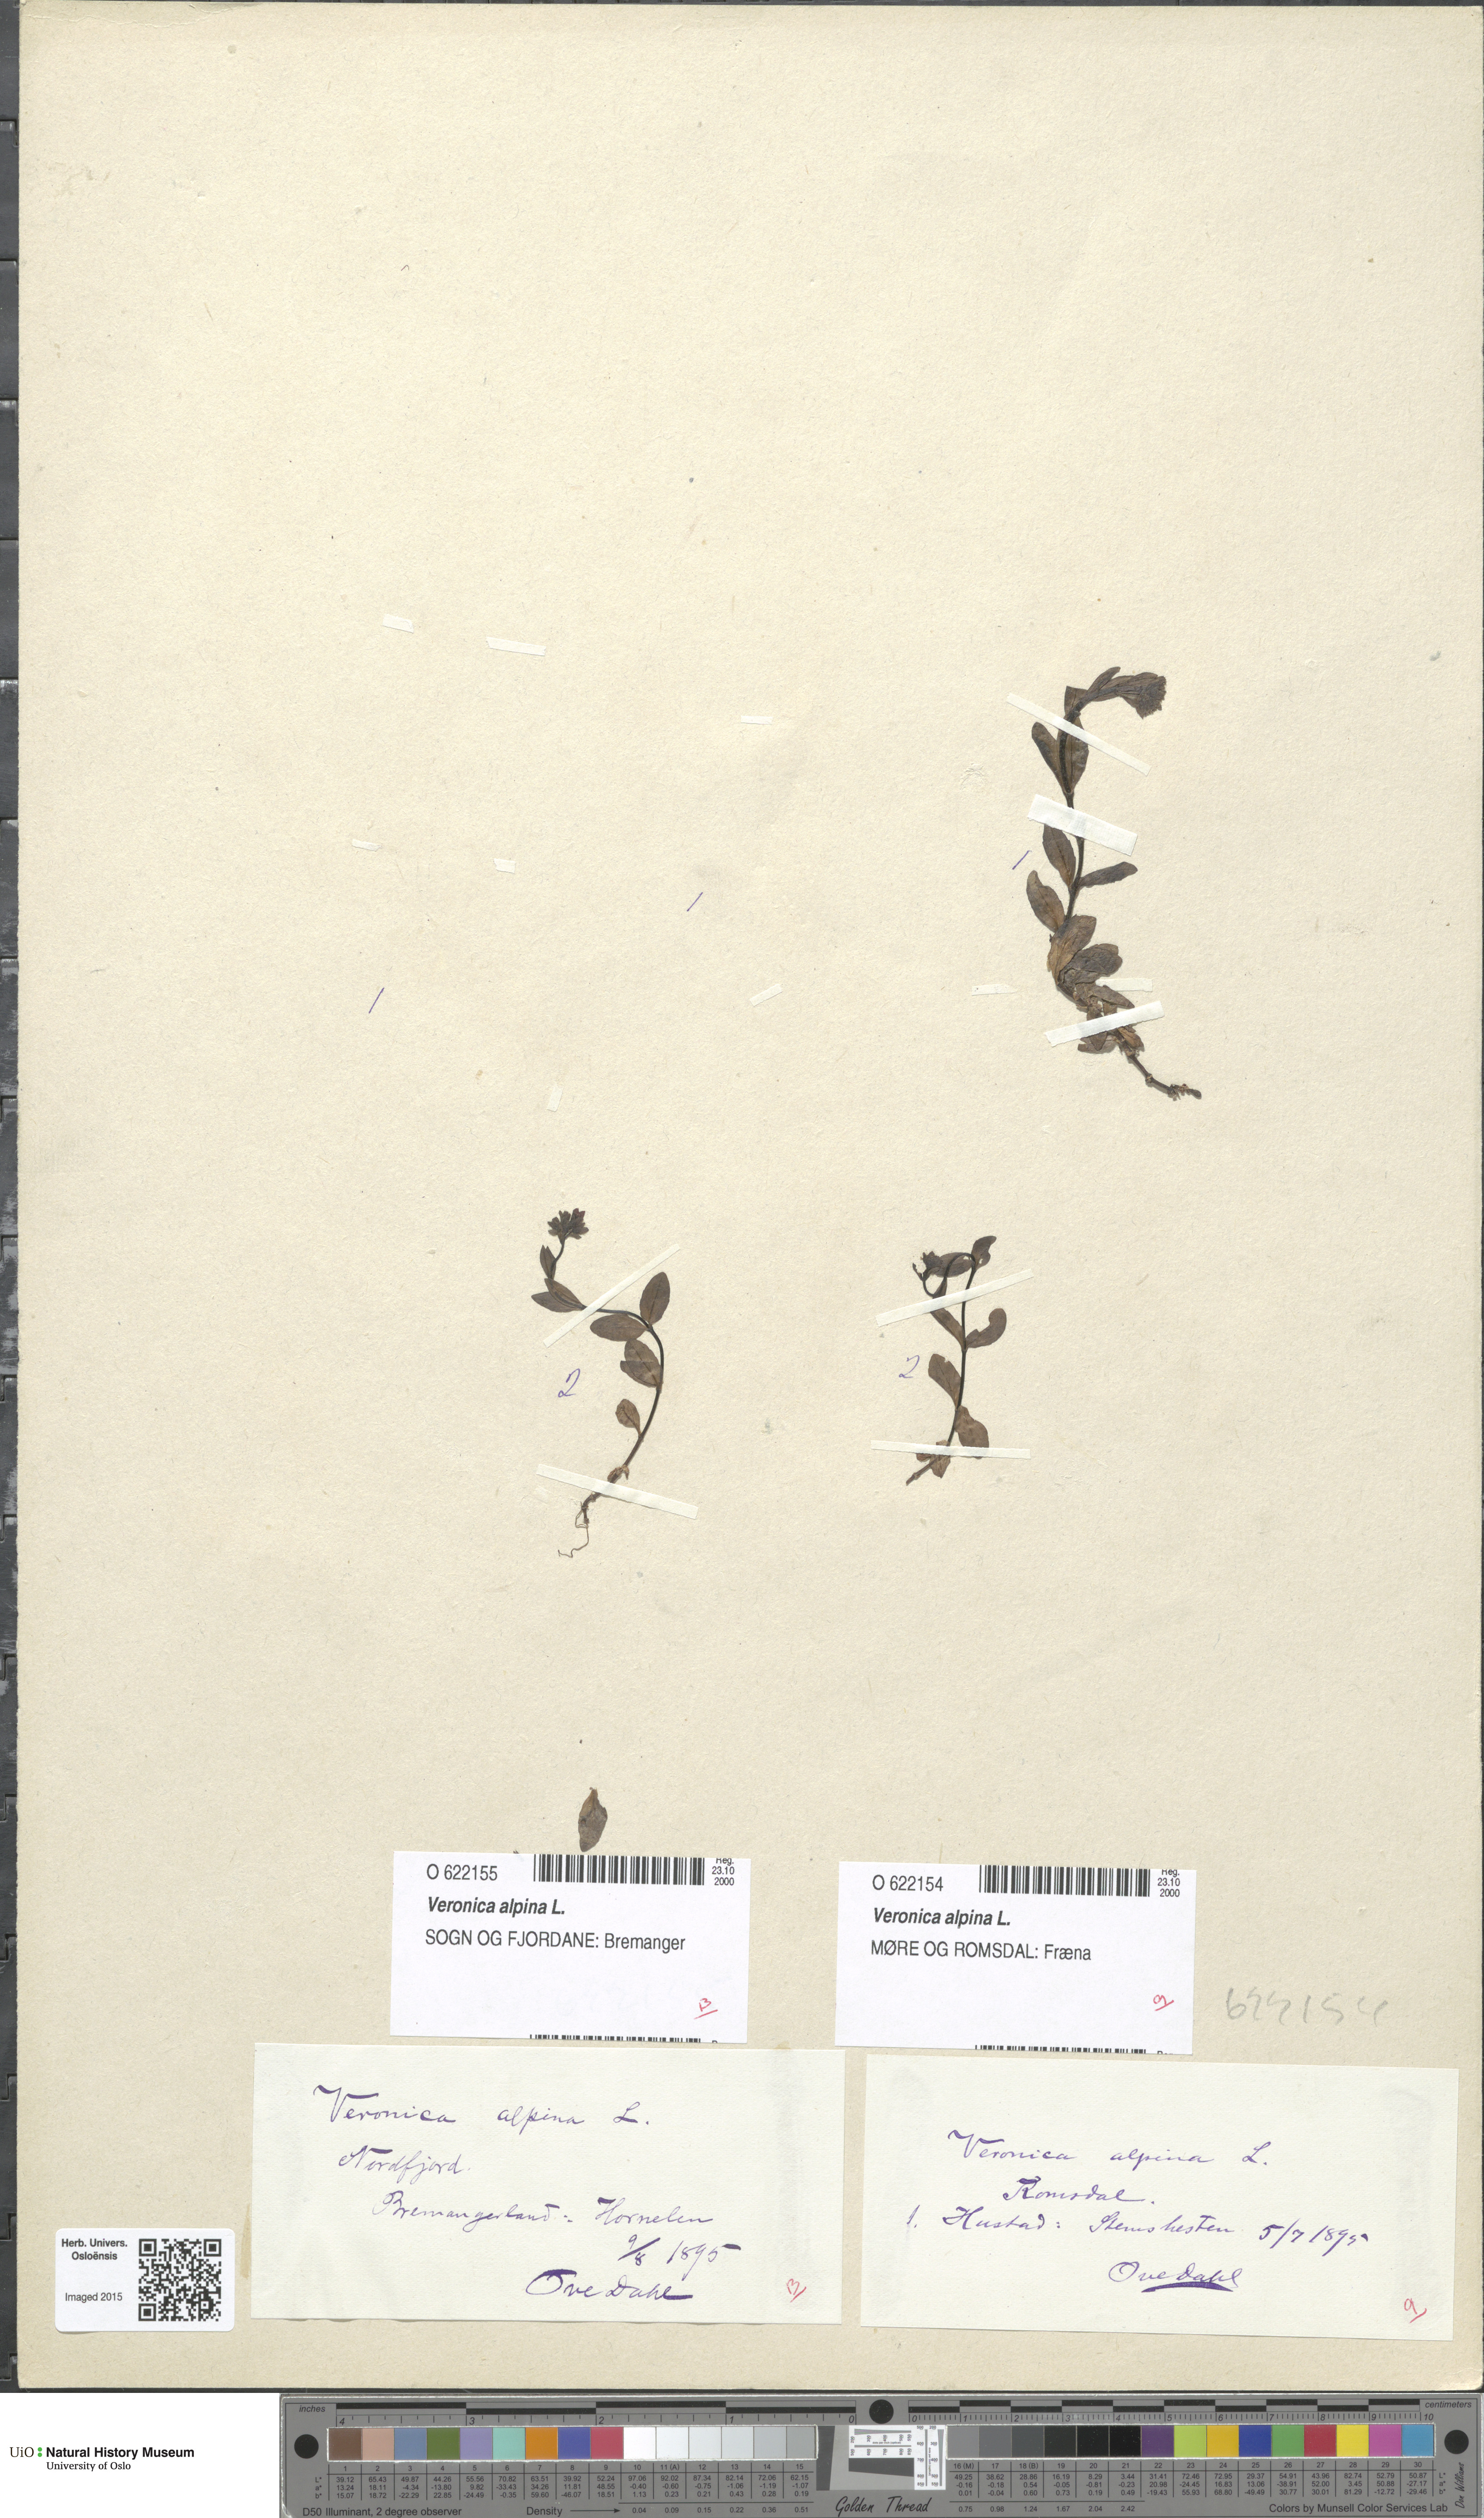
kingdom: Plantae
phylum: Tracheophyta
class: Magnoliopsida
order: Lamiales
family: Plantaginaceae
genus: Veronica
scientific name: Veronica alpina
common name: Alpine speedwell
